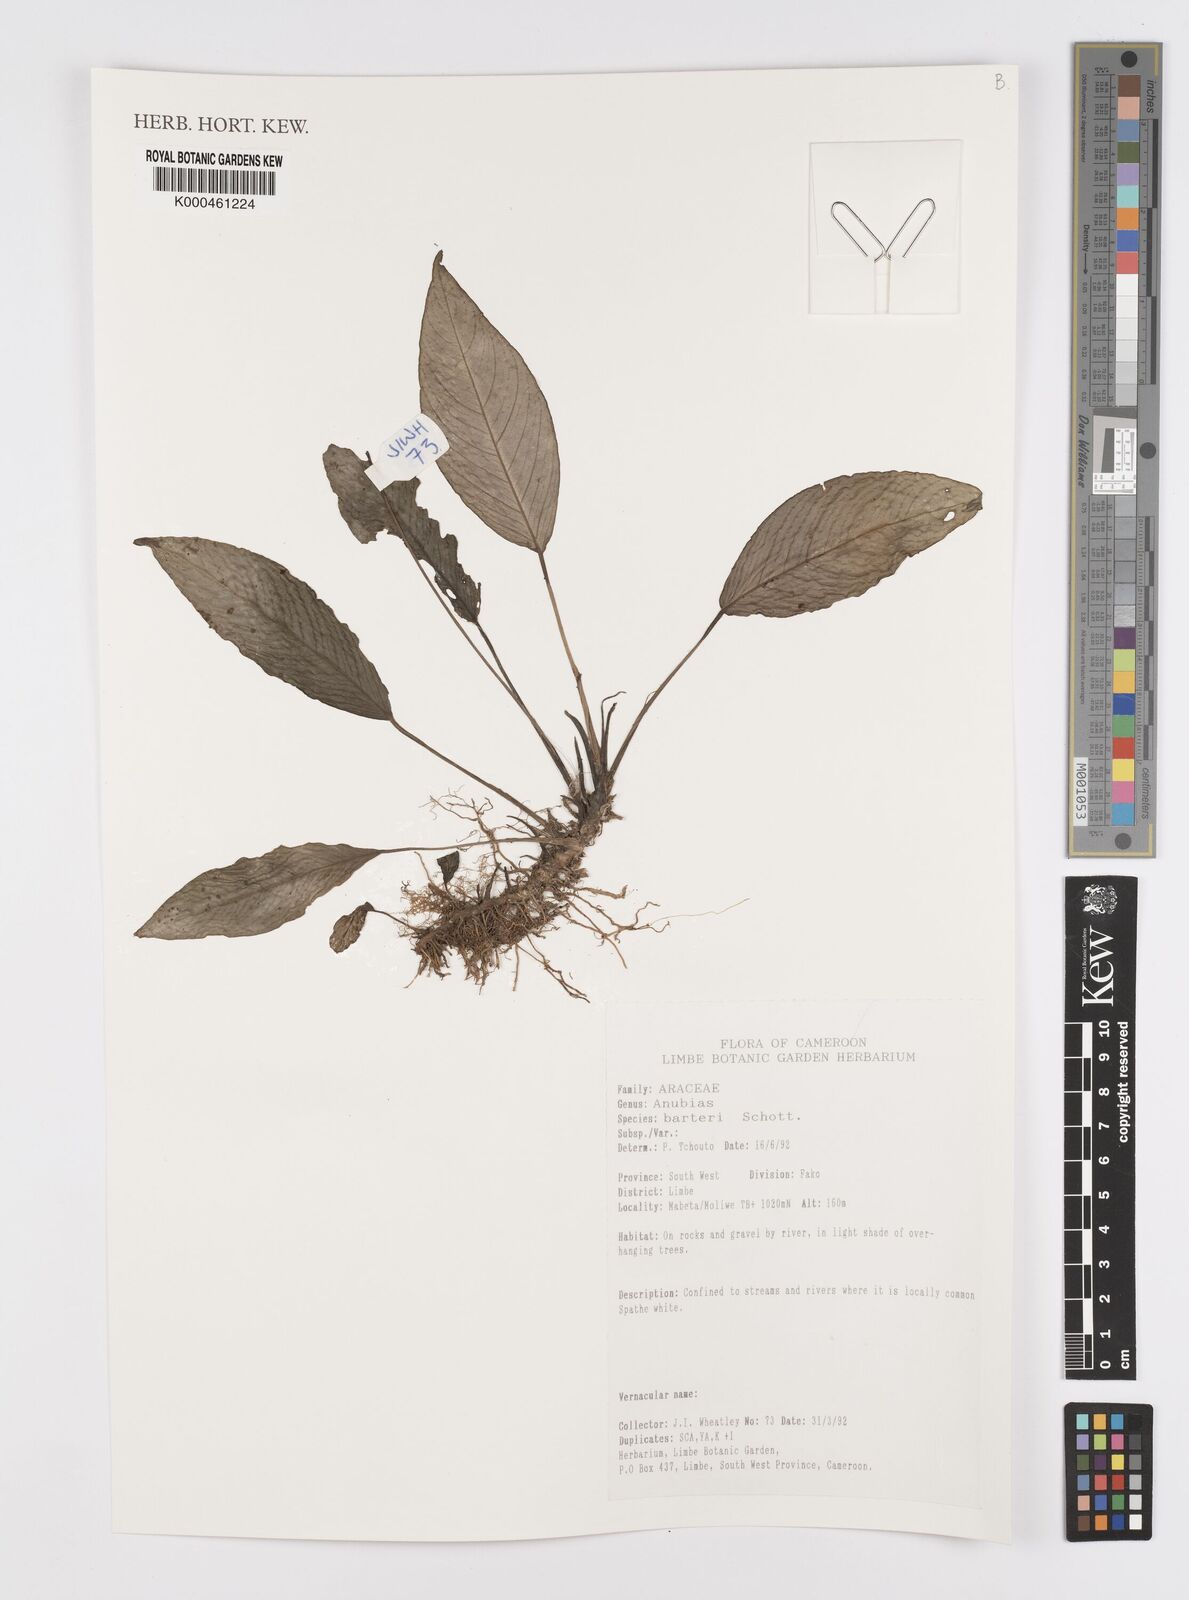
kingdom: Plantae
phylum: Tracheophyta
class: Liliopsida
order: Alismatales
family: Araceae
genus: Anubias
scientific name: Anubias barteri
